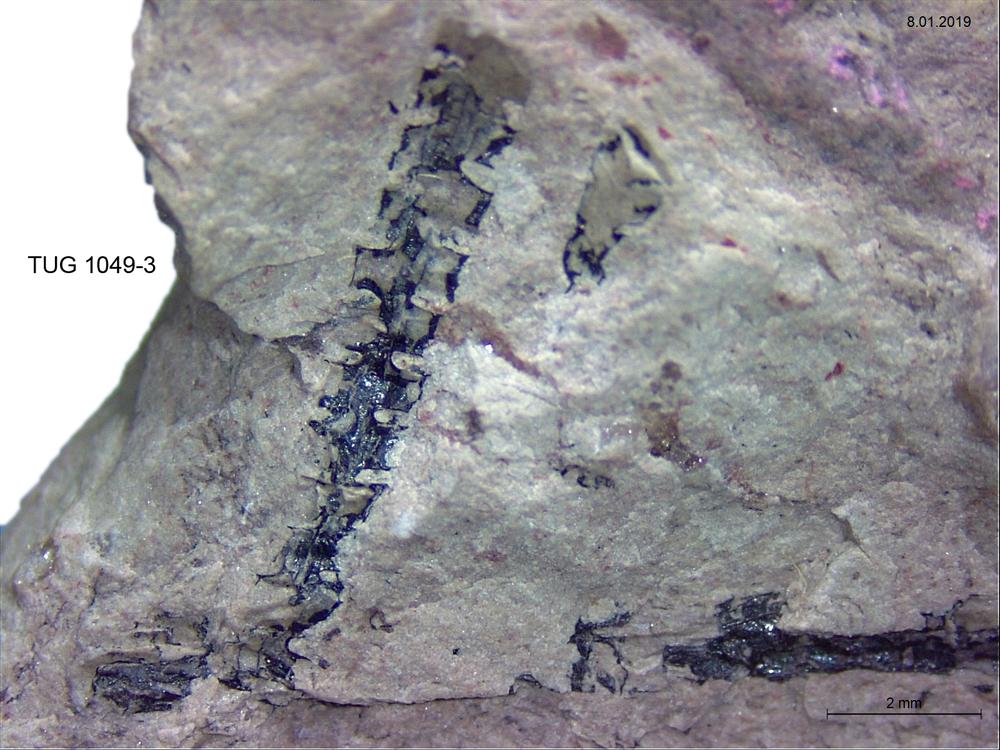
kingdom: Animalia
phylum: Hemichordata
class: Pterobranchia
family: Monograptidae
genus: Normalograptus
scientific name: Normalograptus normalis
